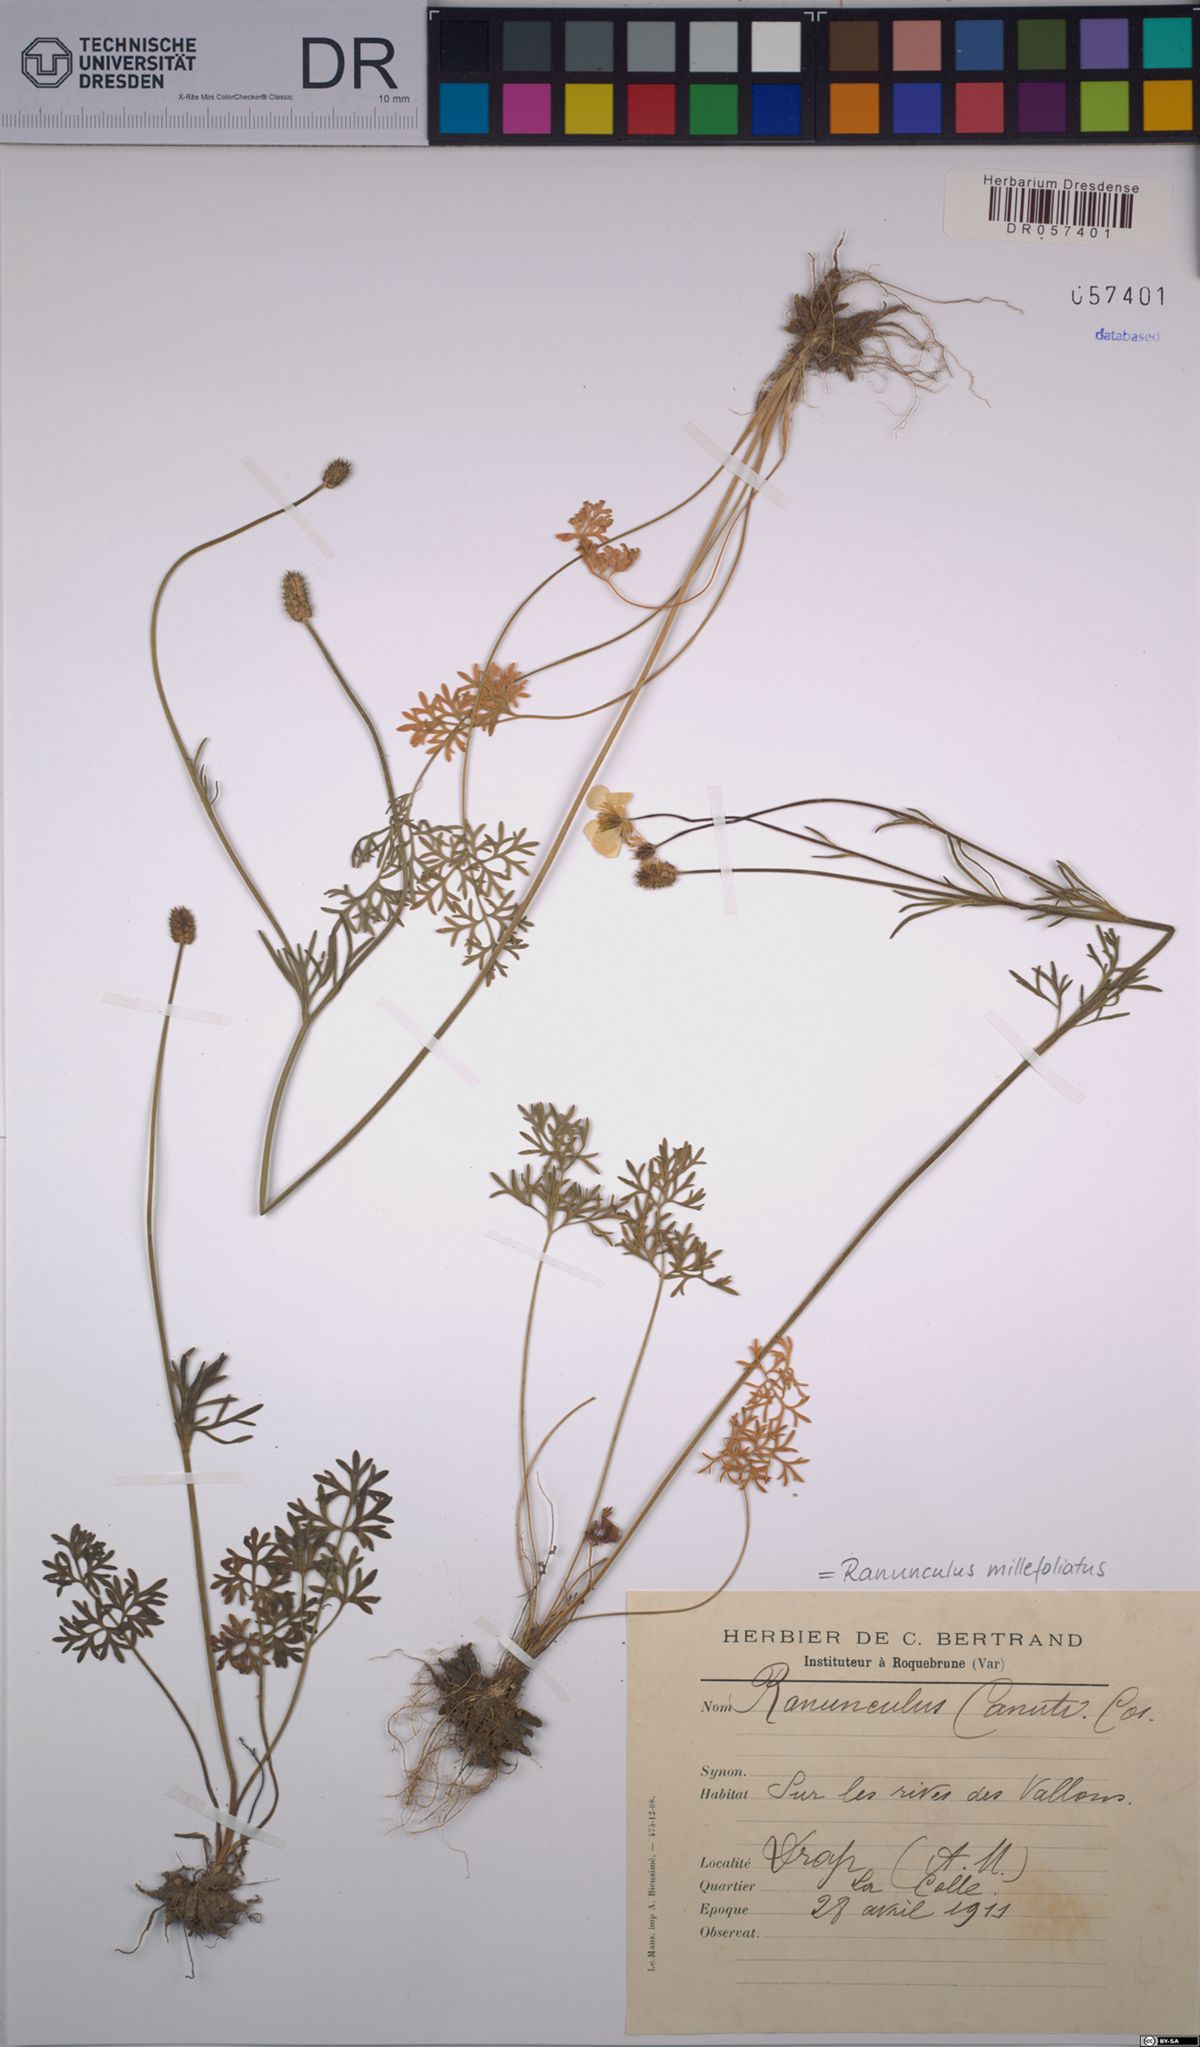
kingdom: Plantae
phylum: Tracheophyta
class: Magnoliopsida
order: Ranunculales
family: Ranunculaceae
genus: Ranunculus
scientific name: Ranunculus millefoliatus
